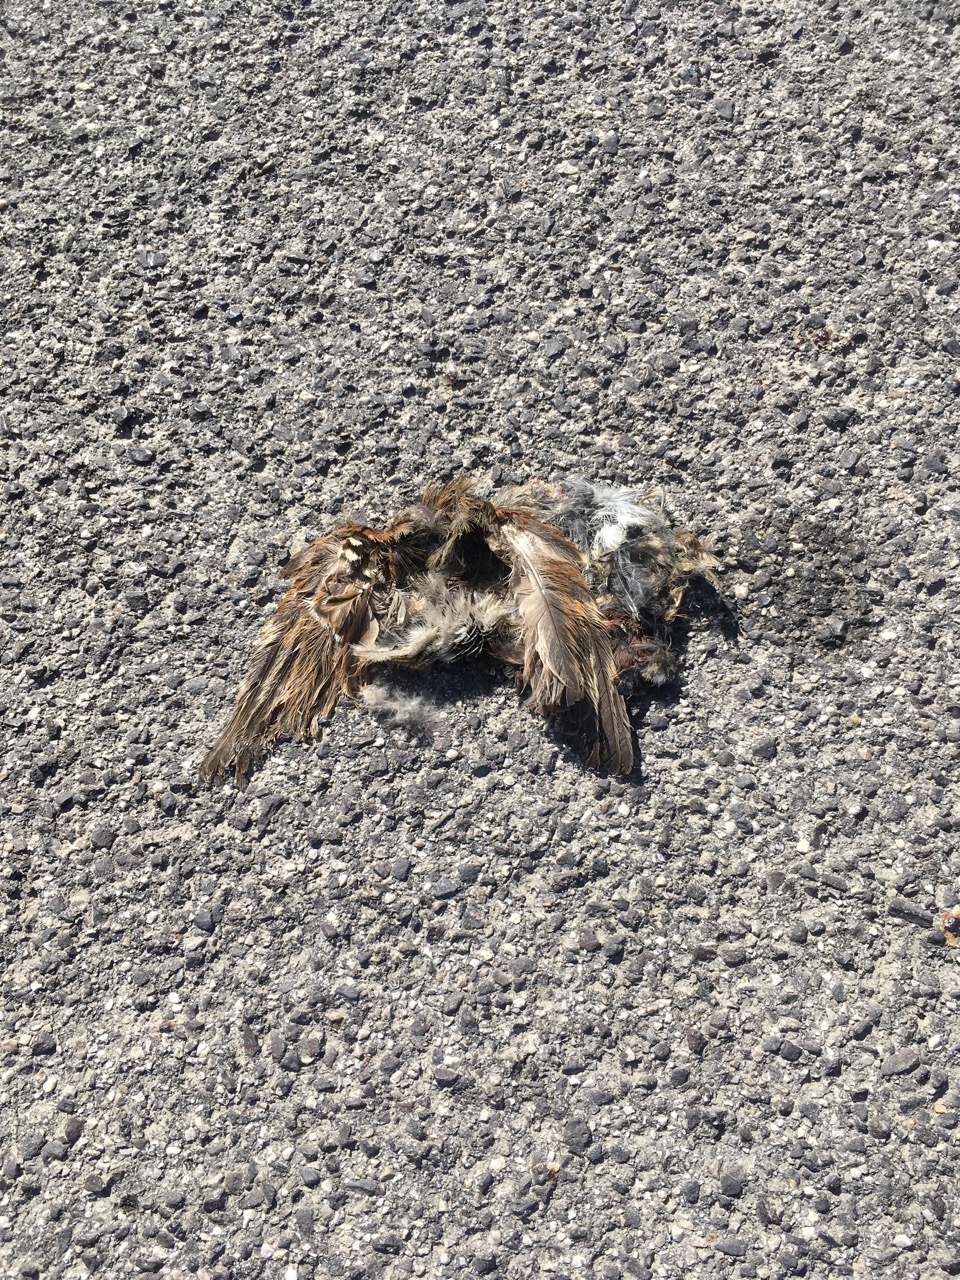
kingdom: Animalia
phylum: Chordata
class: Aves
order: Passeriformes
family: Passeridae
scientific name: Passeridae
